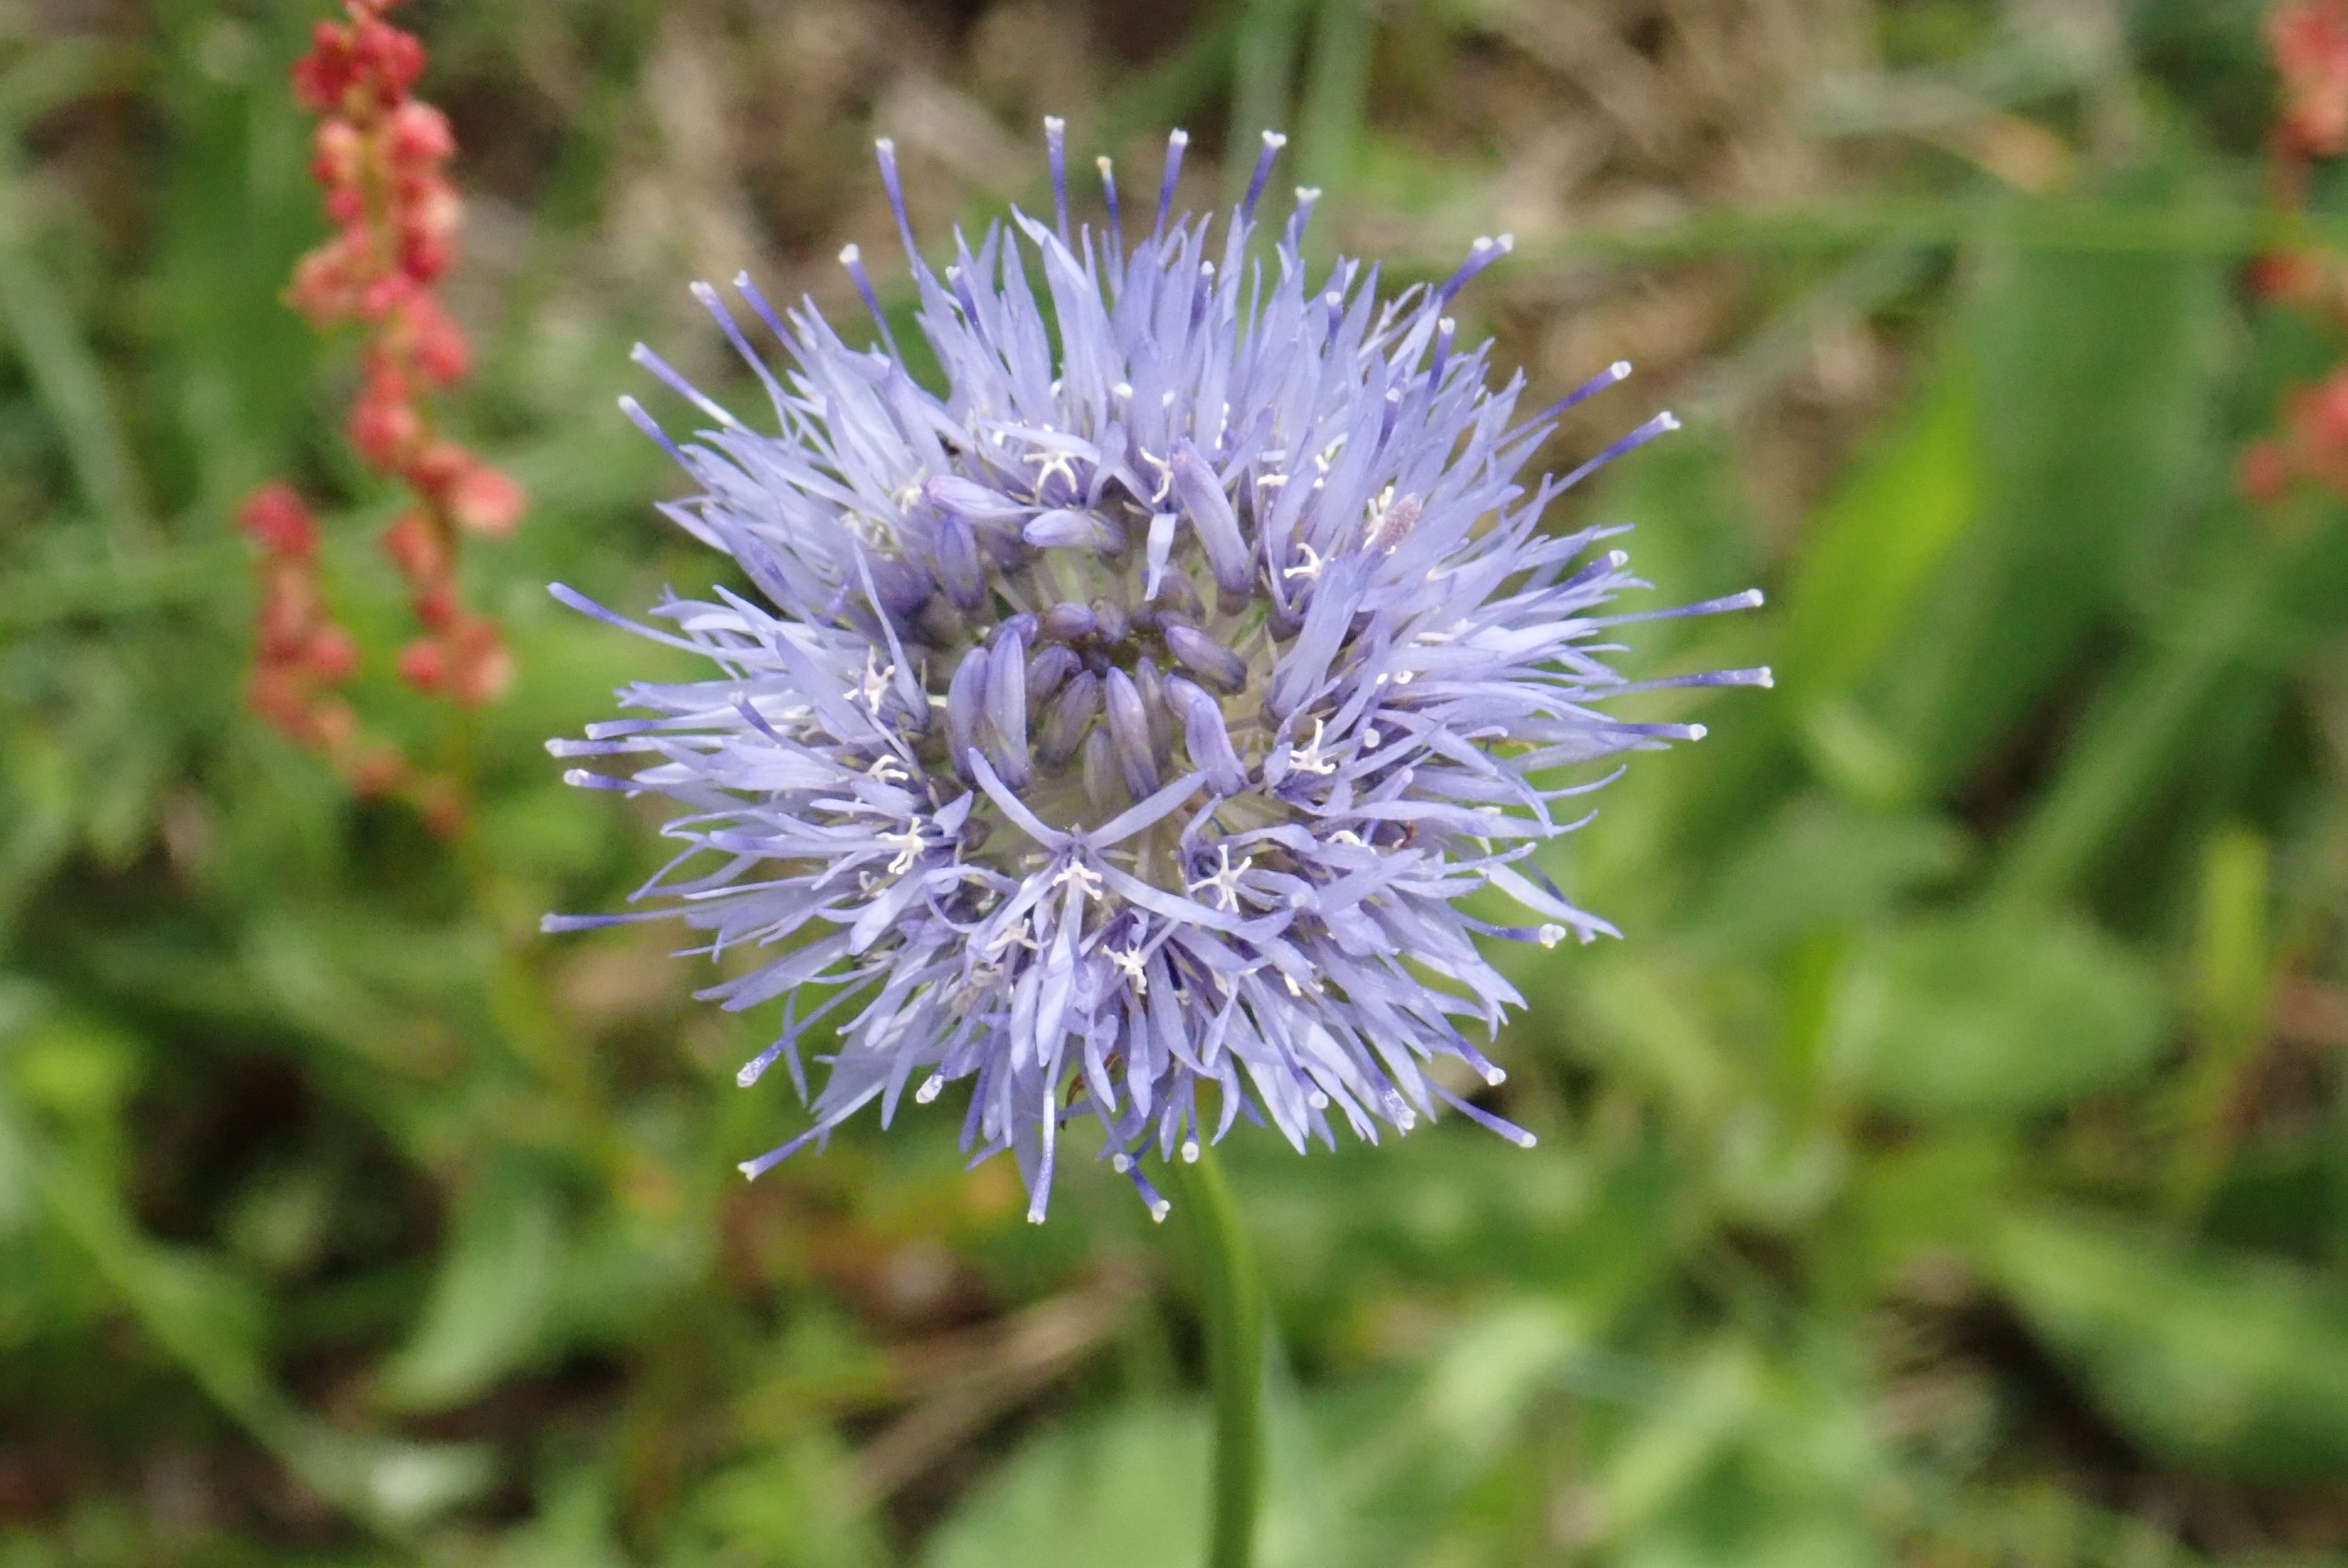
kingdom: Plantae
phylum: Tracheophyta
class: Magnoliopsida
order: Asterales
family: Campanulaceae
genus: Jasione
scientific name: Jasione montana
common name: Blåmunke
